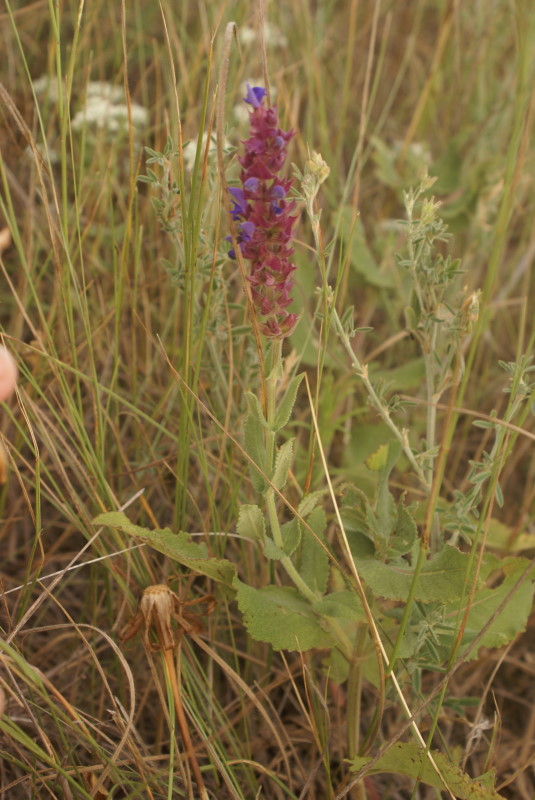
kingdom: Plantae
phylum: Tracheophyta
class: Magnoliopsida
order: Lamiales
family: Lamiaceae
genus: Salvia
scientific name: Salvia
